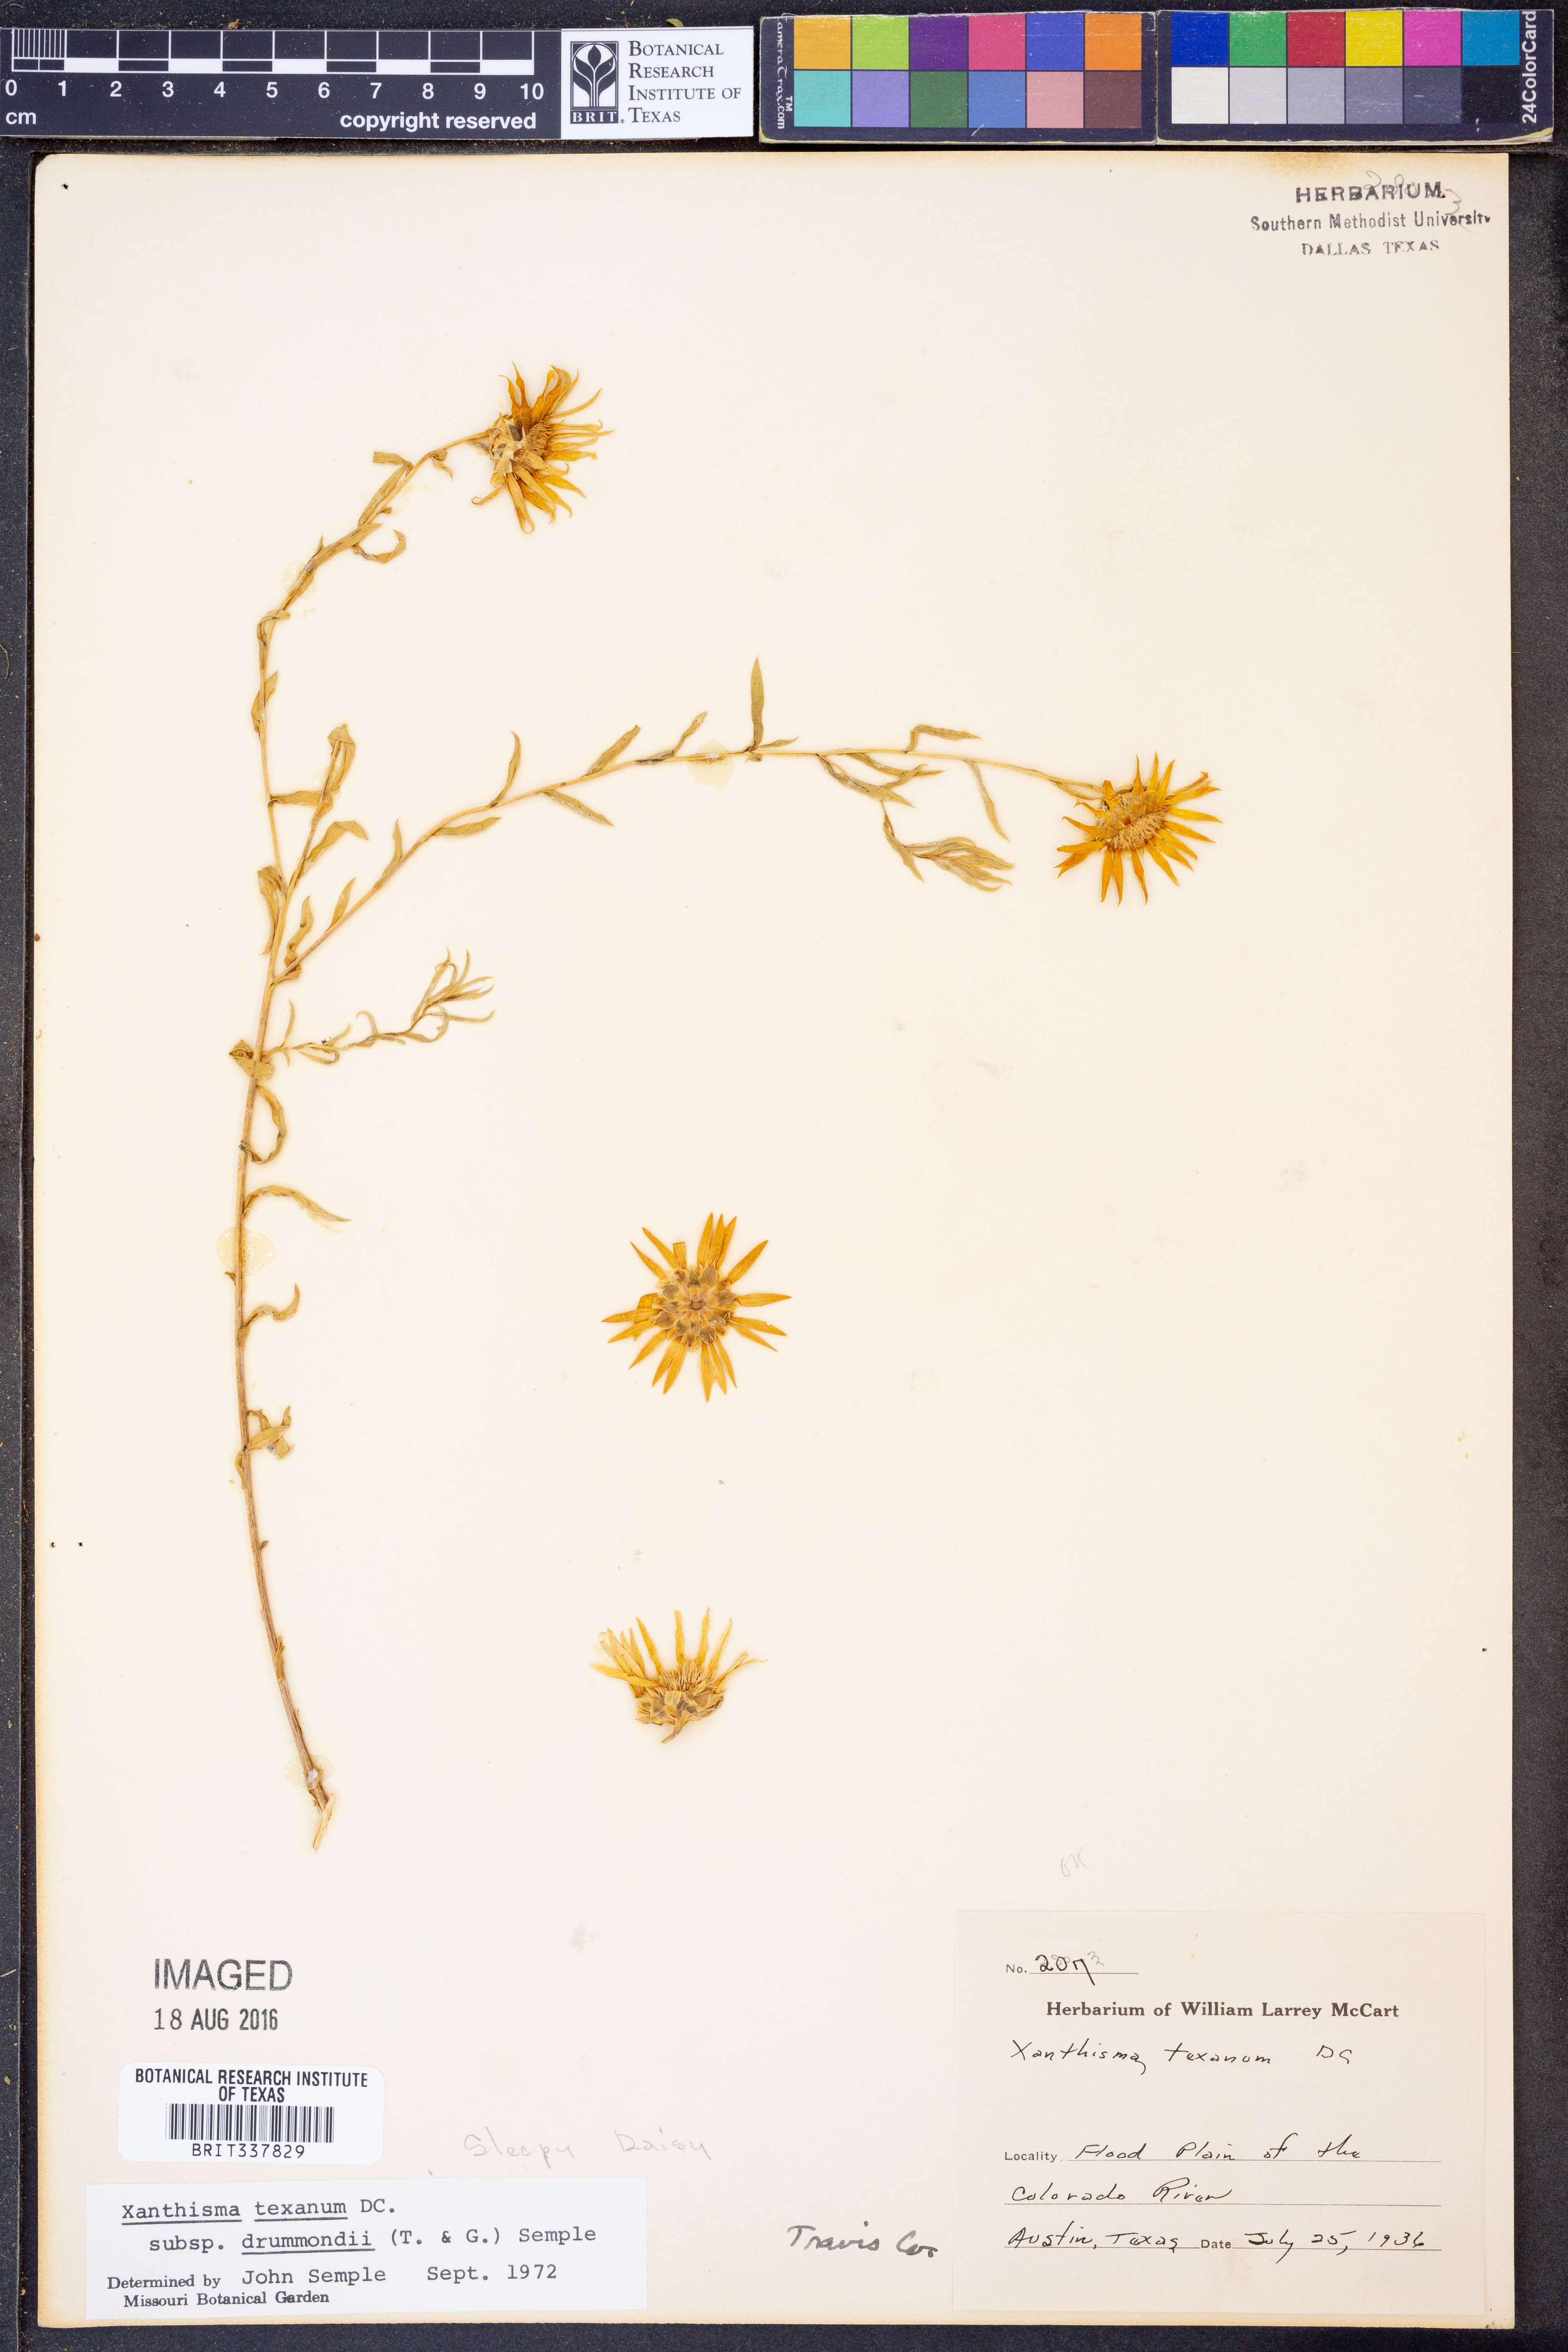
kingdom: Plantae
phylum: Tracheophyta
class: Magnoliopsida
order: Asterales
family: Asteraceae
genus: Xanthisma
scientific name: Xanthisma texanum
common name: Texas sleepy daisy
